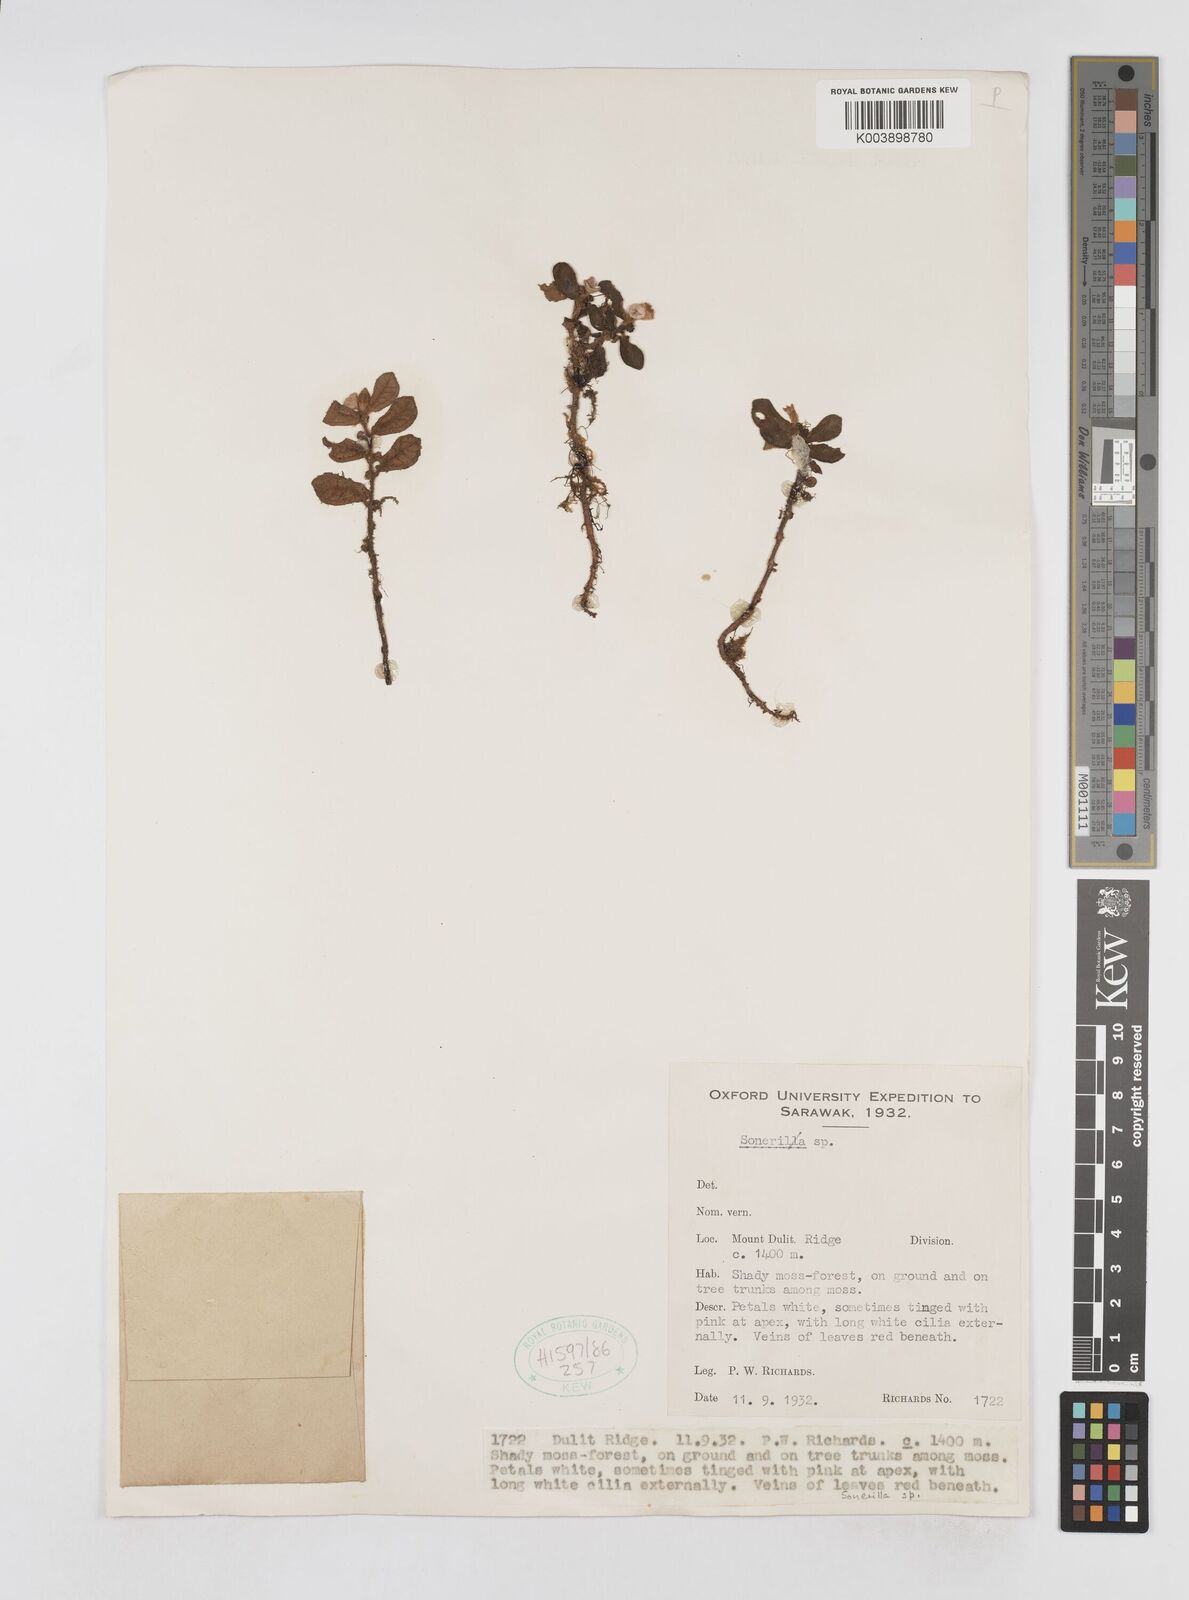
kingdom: Plantae
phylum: Tracheophyta
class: Magnoliopsida
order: Myrtales
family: Melastomataceae
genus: Sonerila
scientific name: Sonerila
